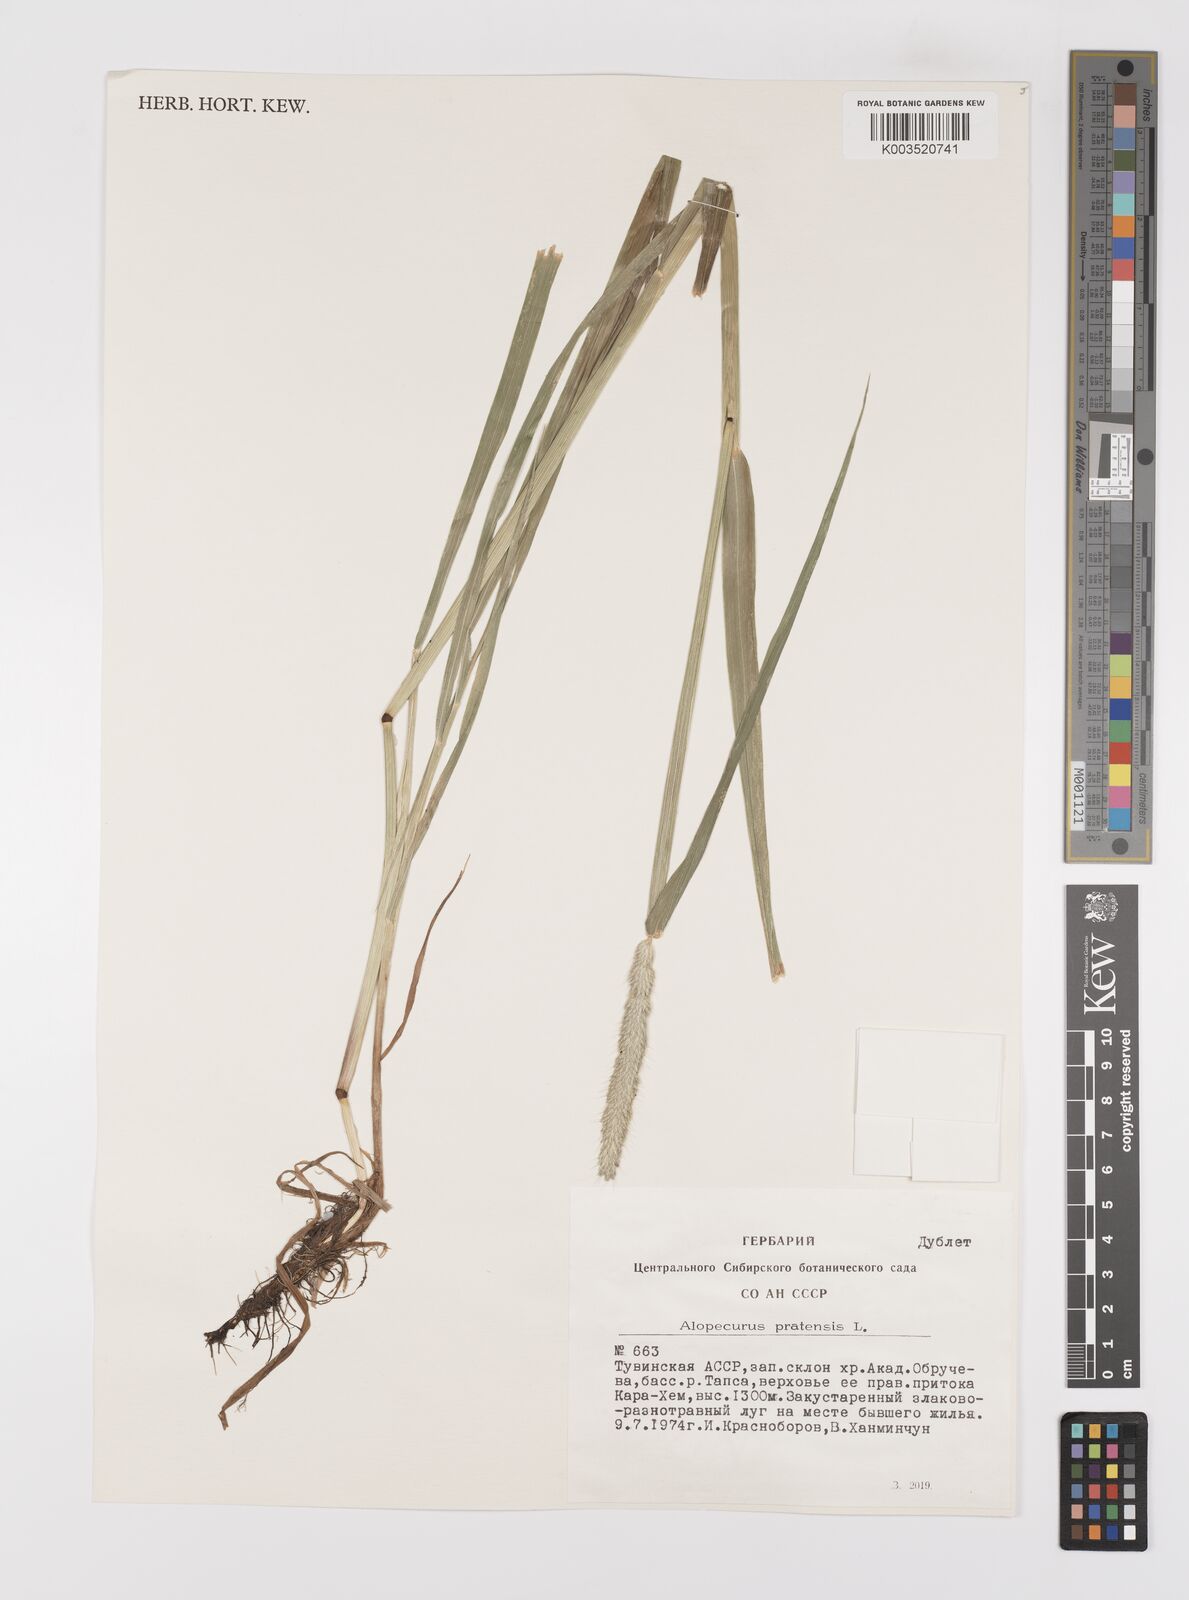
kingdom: Plantae
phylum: Tracheophyta
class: Liliopsida
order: Poales
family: Poaceae
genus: Alopecurus
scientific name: Alopecurus pratensis
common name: Meadow foxtail
